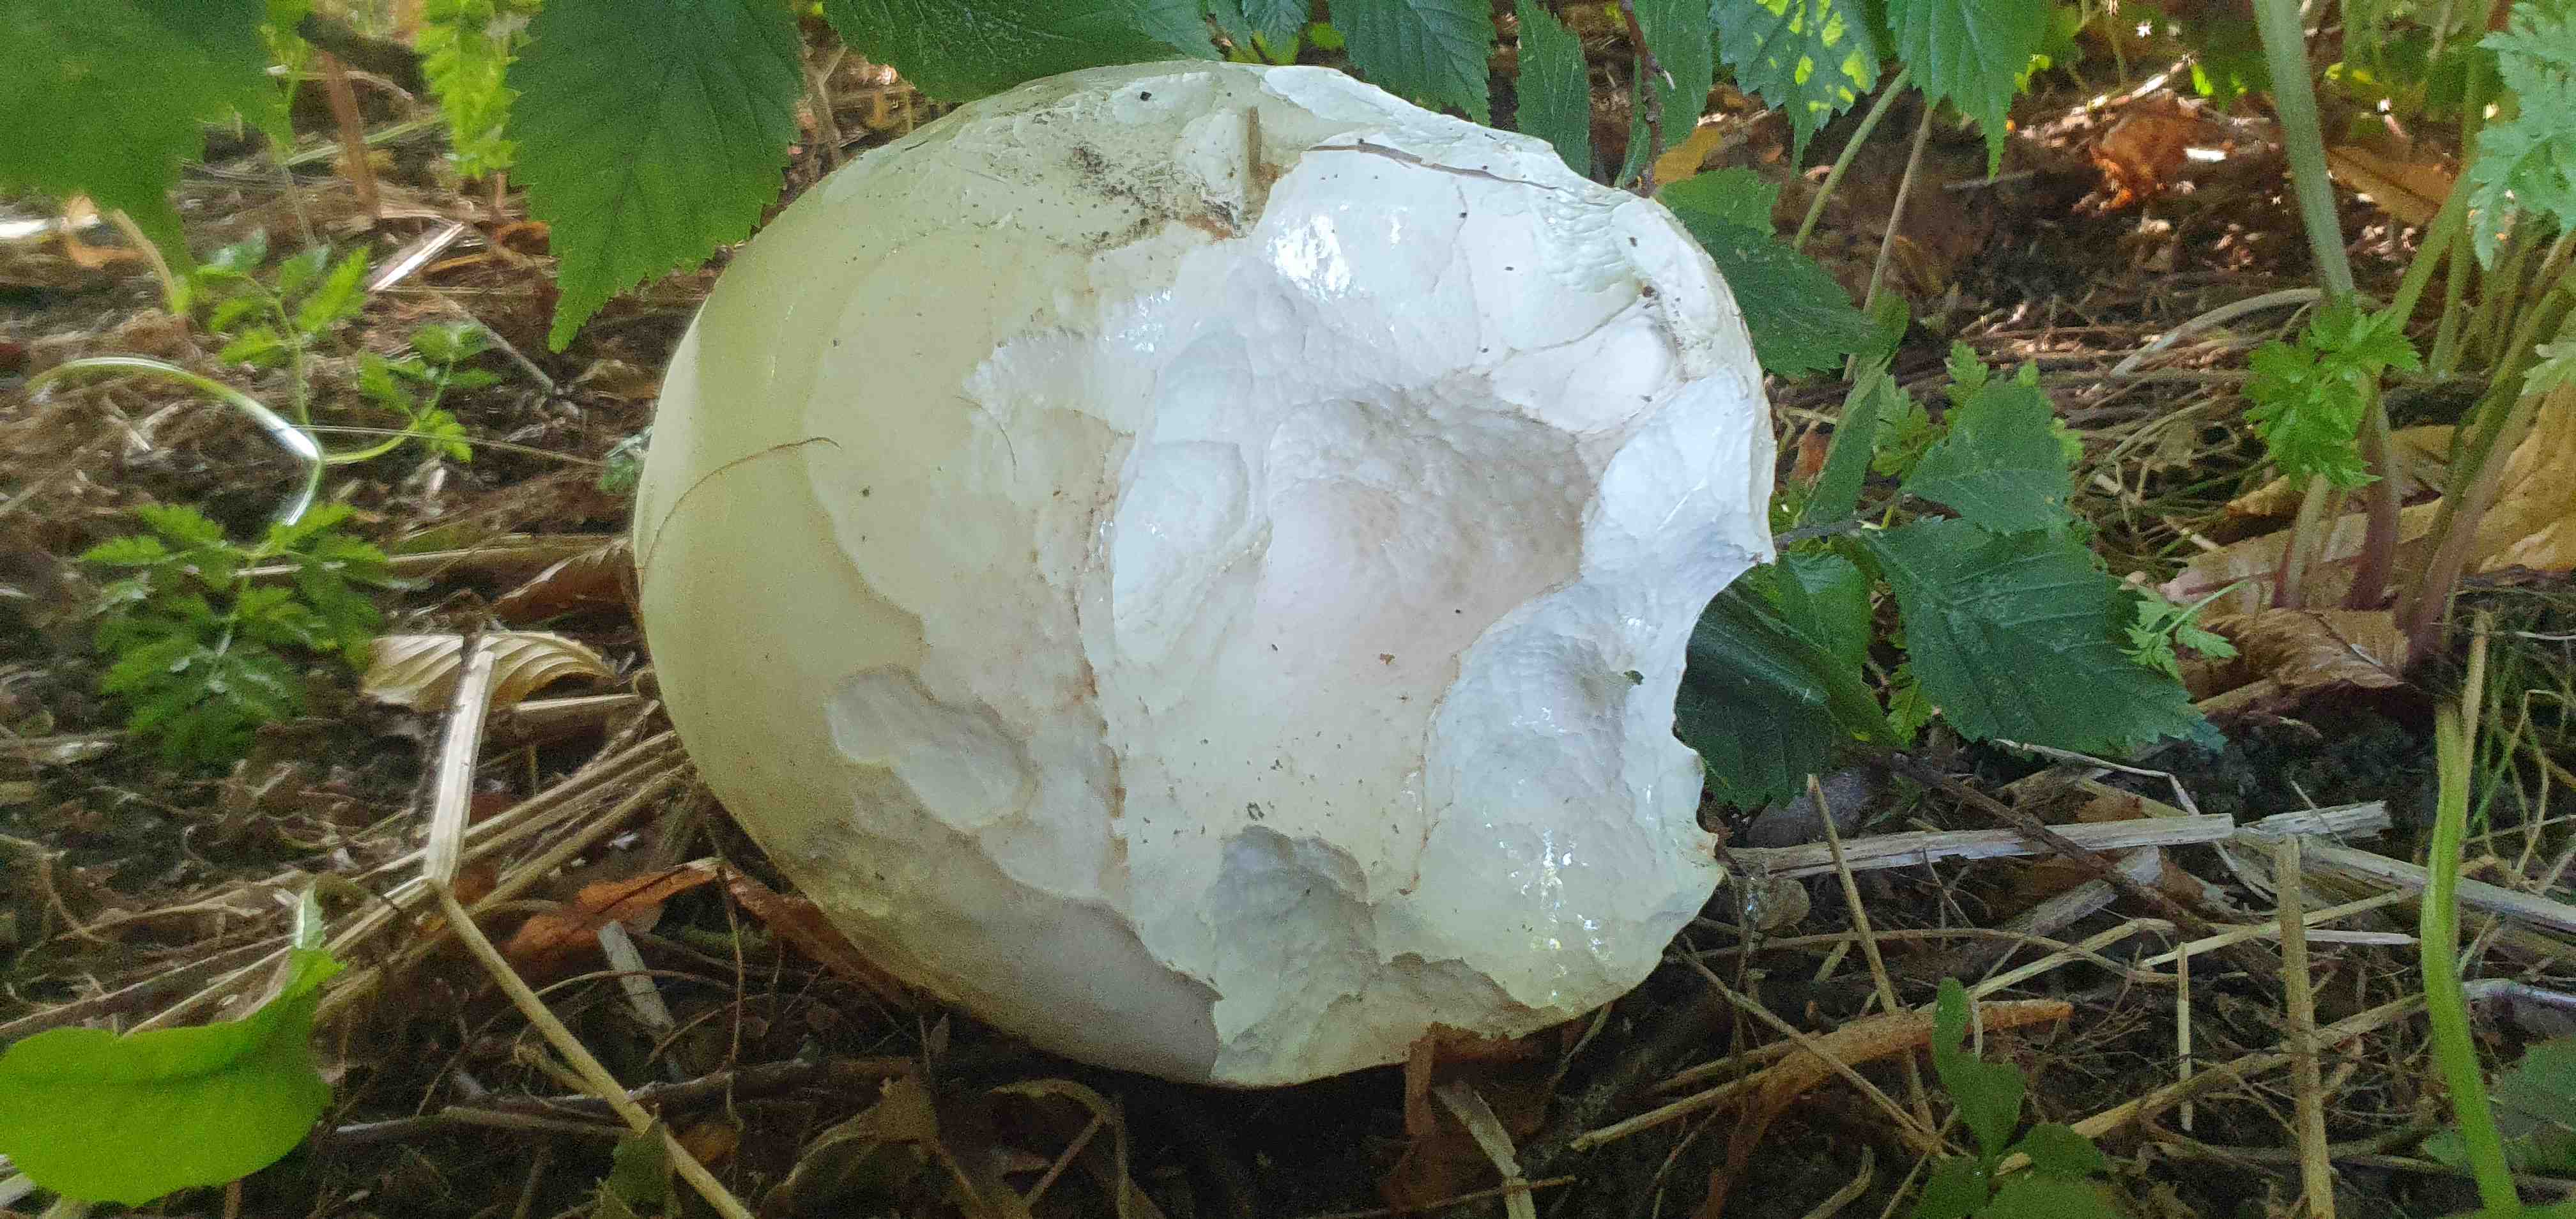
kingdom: Fungi
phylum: Basidiomycota
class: Agaricomycetes
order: Agaricales
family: Lycoperdaceae
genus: Calvatia
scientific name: Calvatia gigantea
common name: kæmpestøvbold
